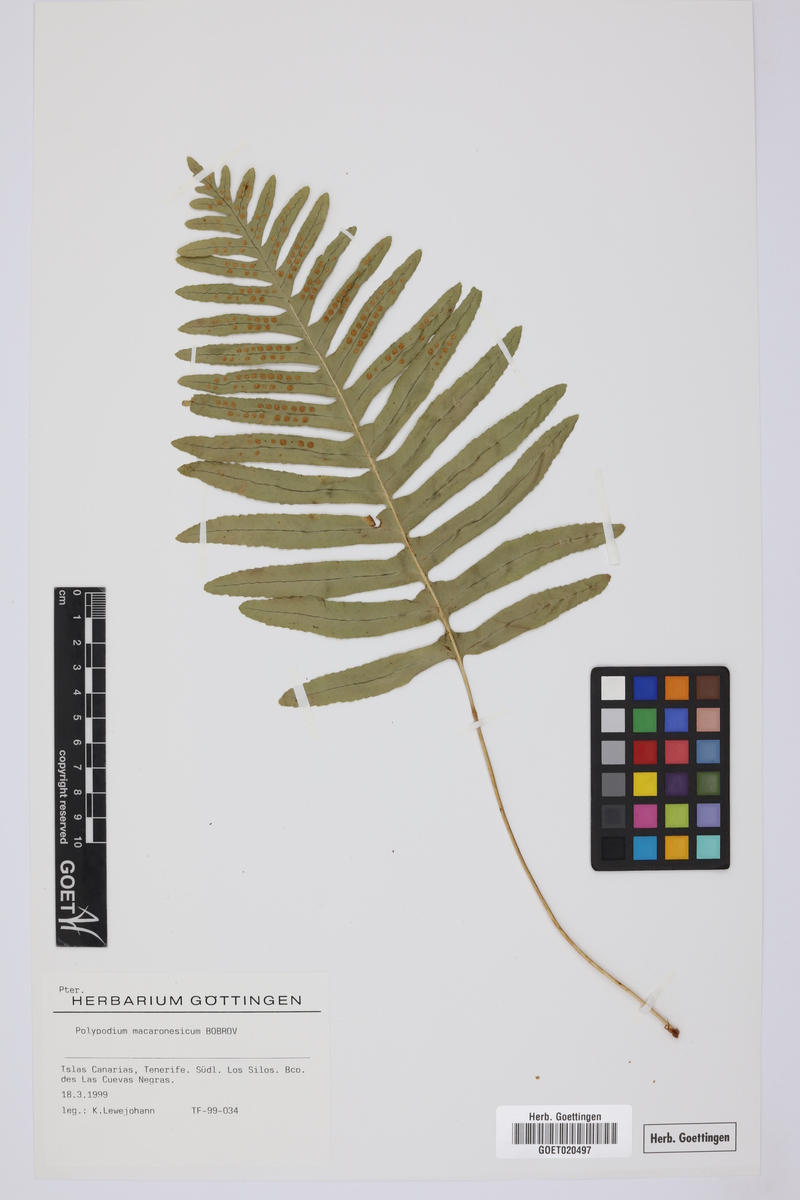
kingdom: Plantae
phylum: Tracheophyta
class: Polypodiopsida
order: Polypodiales
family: Polypodiaceae
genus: Polypodium
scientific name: Polypodium macaronesicum
